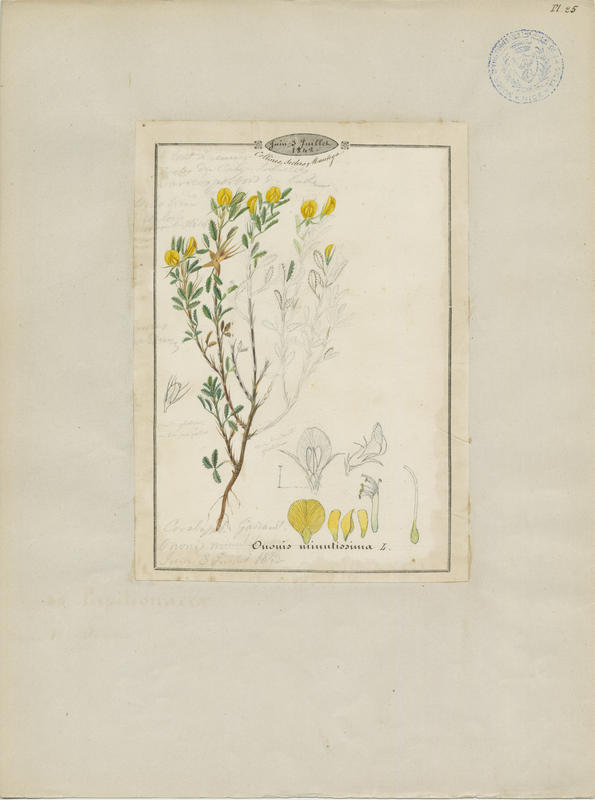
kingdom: Plantae
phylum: Tracheophyta
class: Magnoliopsida
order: Fabales
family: Fabaceae
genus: Ononis
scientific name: Ononis minutissima
